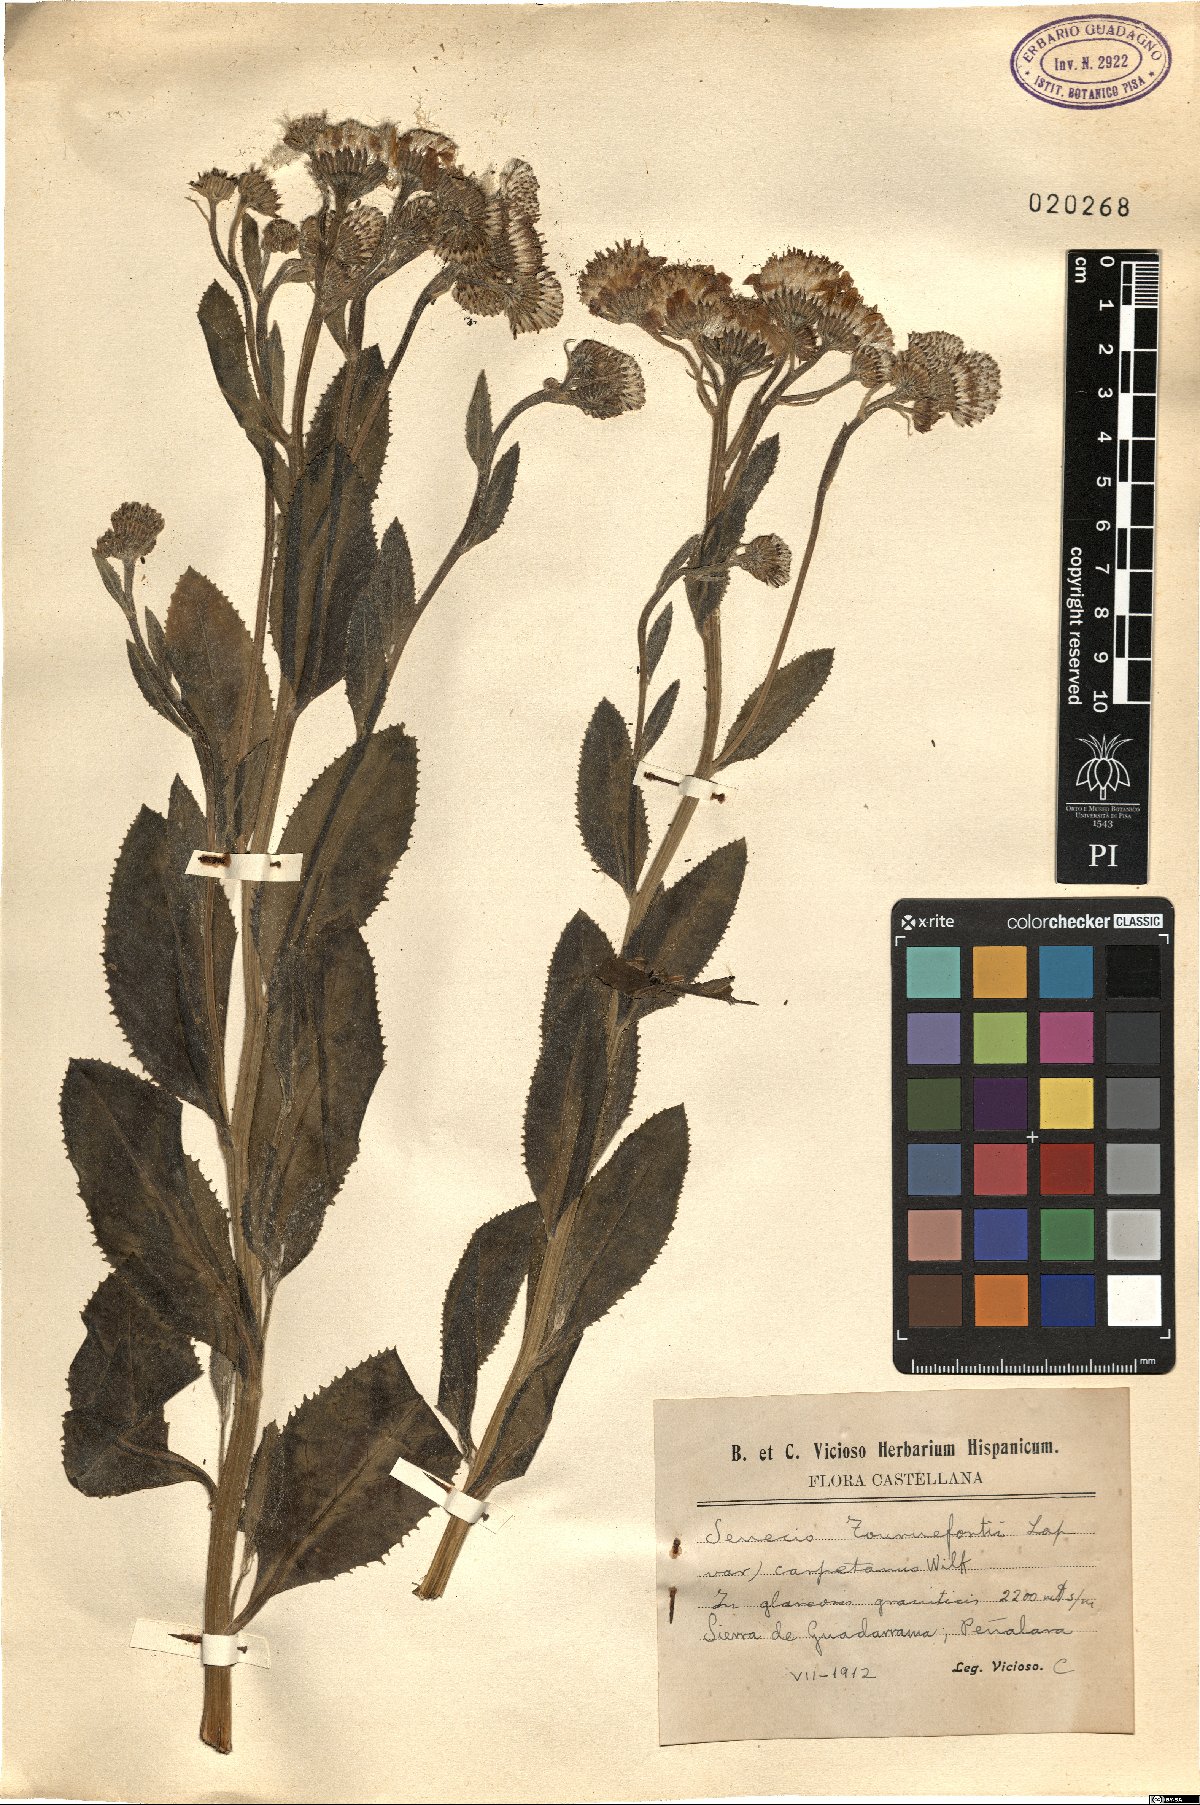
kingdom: Plantae
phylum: Tracheophyta
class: Magnoliopsida
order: Asterales
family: Asteraceae
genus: Senecio
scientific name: Senecio pyrenaicus
